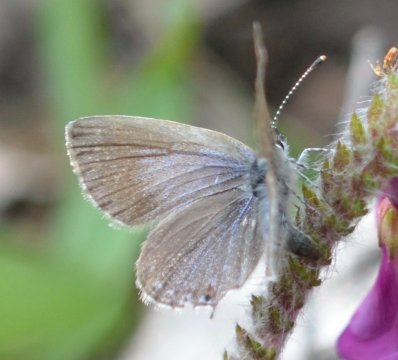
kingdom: Animalia
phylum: Arthropoda
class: Insecta
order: Lepidoptera
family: Lycaenidae
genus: Elkalyce
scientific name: Elkalyce amyntula
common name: Western Tailed-Blue
